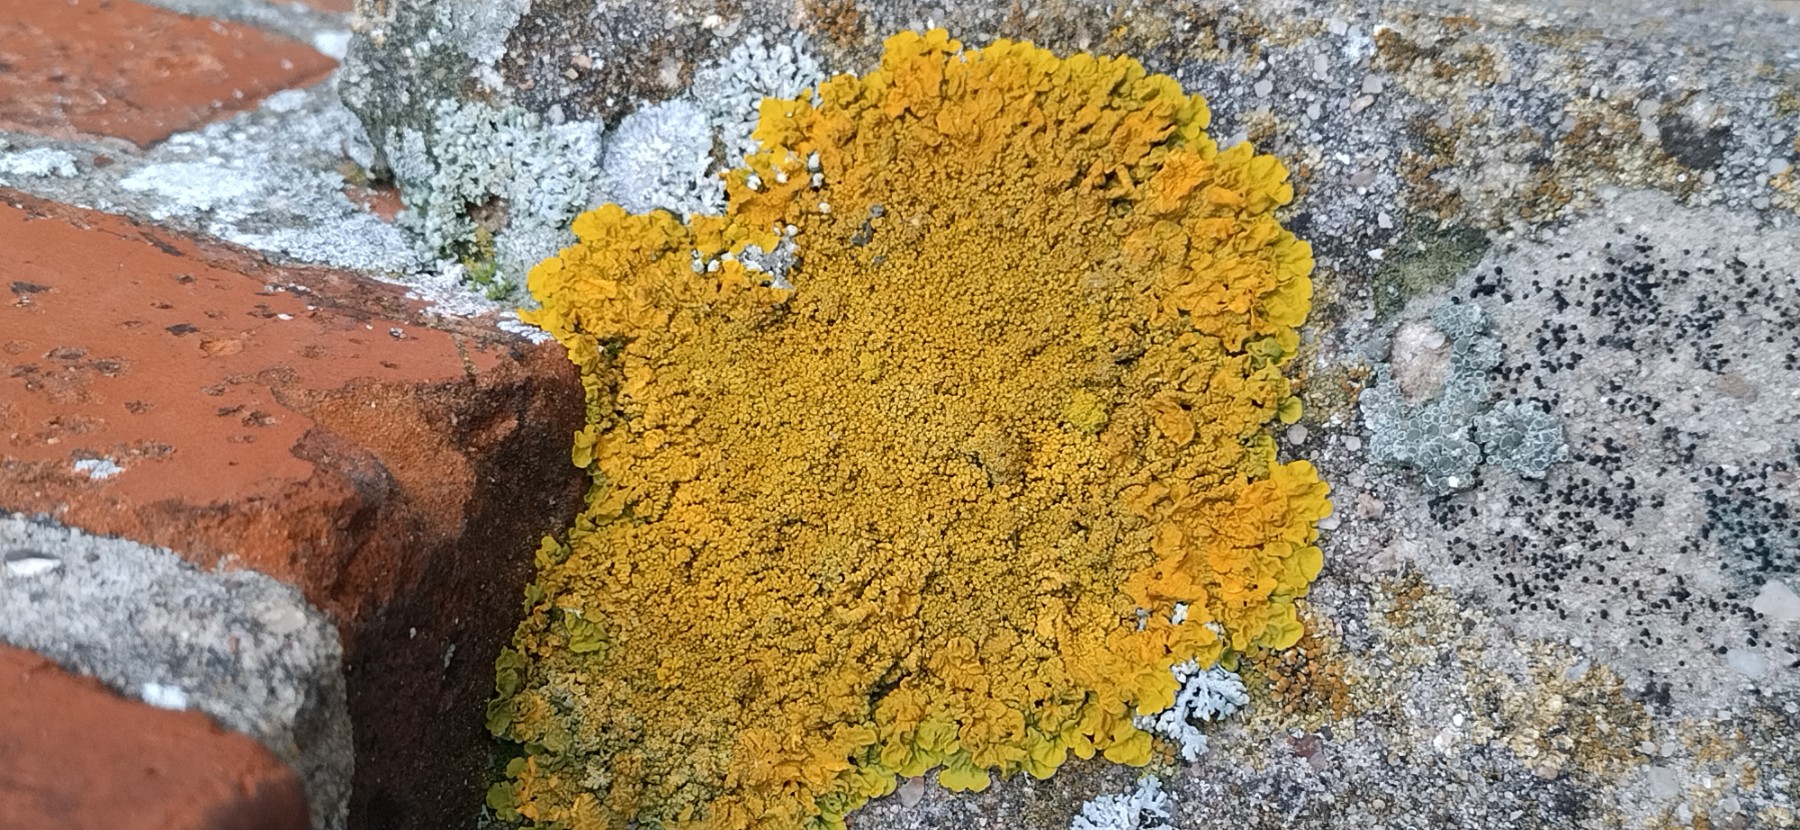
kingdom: Fungi
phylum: Ascomycota
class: Lecanoromycetes
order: Teloschistales
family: Teloschistaceae
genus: Xanthoria
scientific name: Xanthoria calcicola
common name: vortet væggelav
